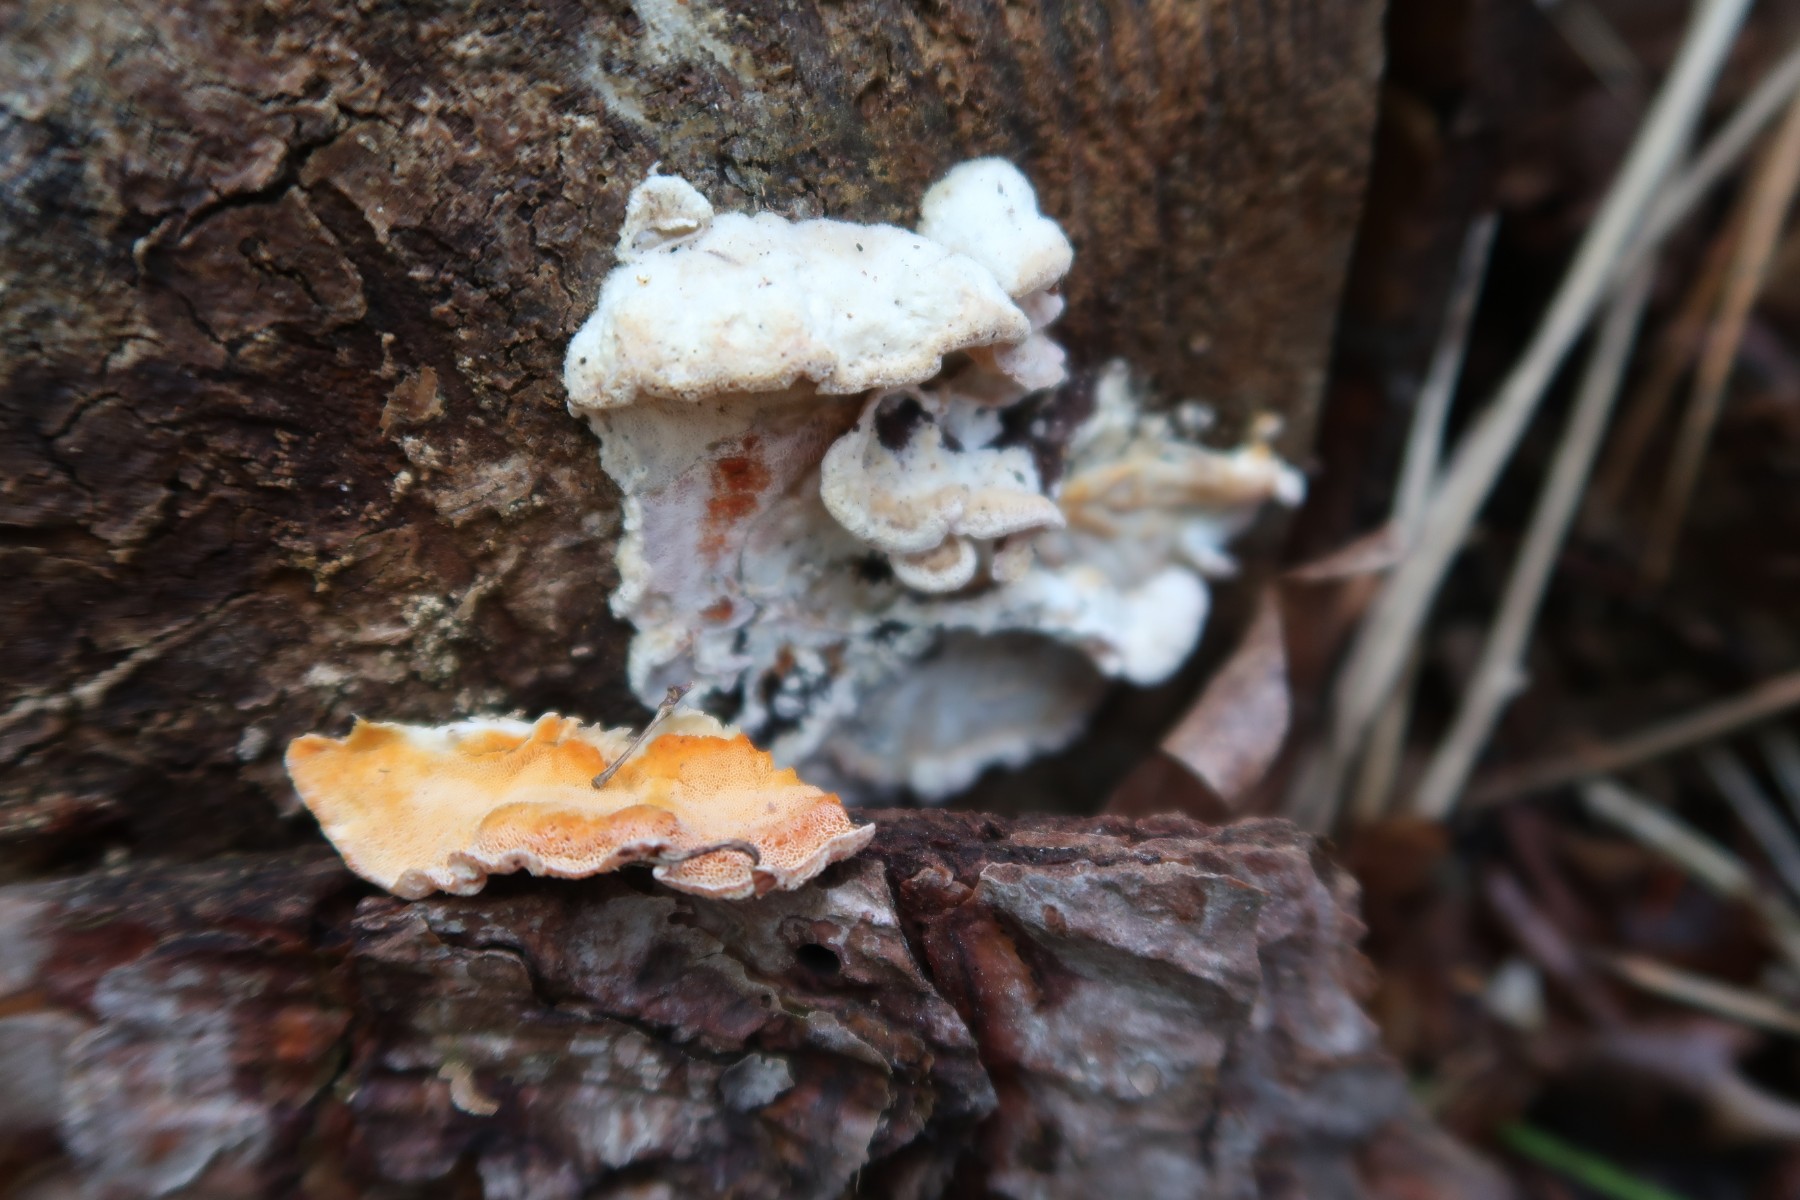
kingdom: Fungi
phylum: Basidiomycota
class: Agaricomycetes
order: Polyporales
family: Incrustoporiaceae
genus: Skeletocutis
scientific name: Skeletocutis amorpha
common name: orange krystalporesvamp
